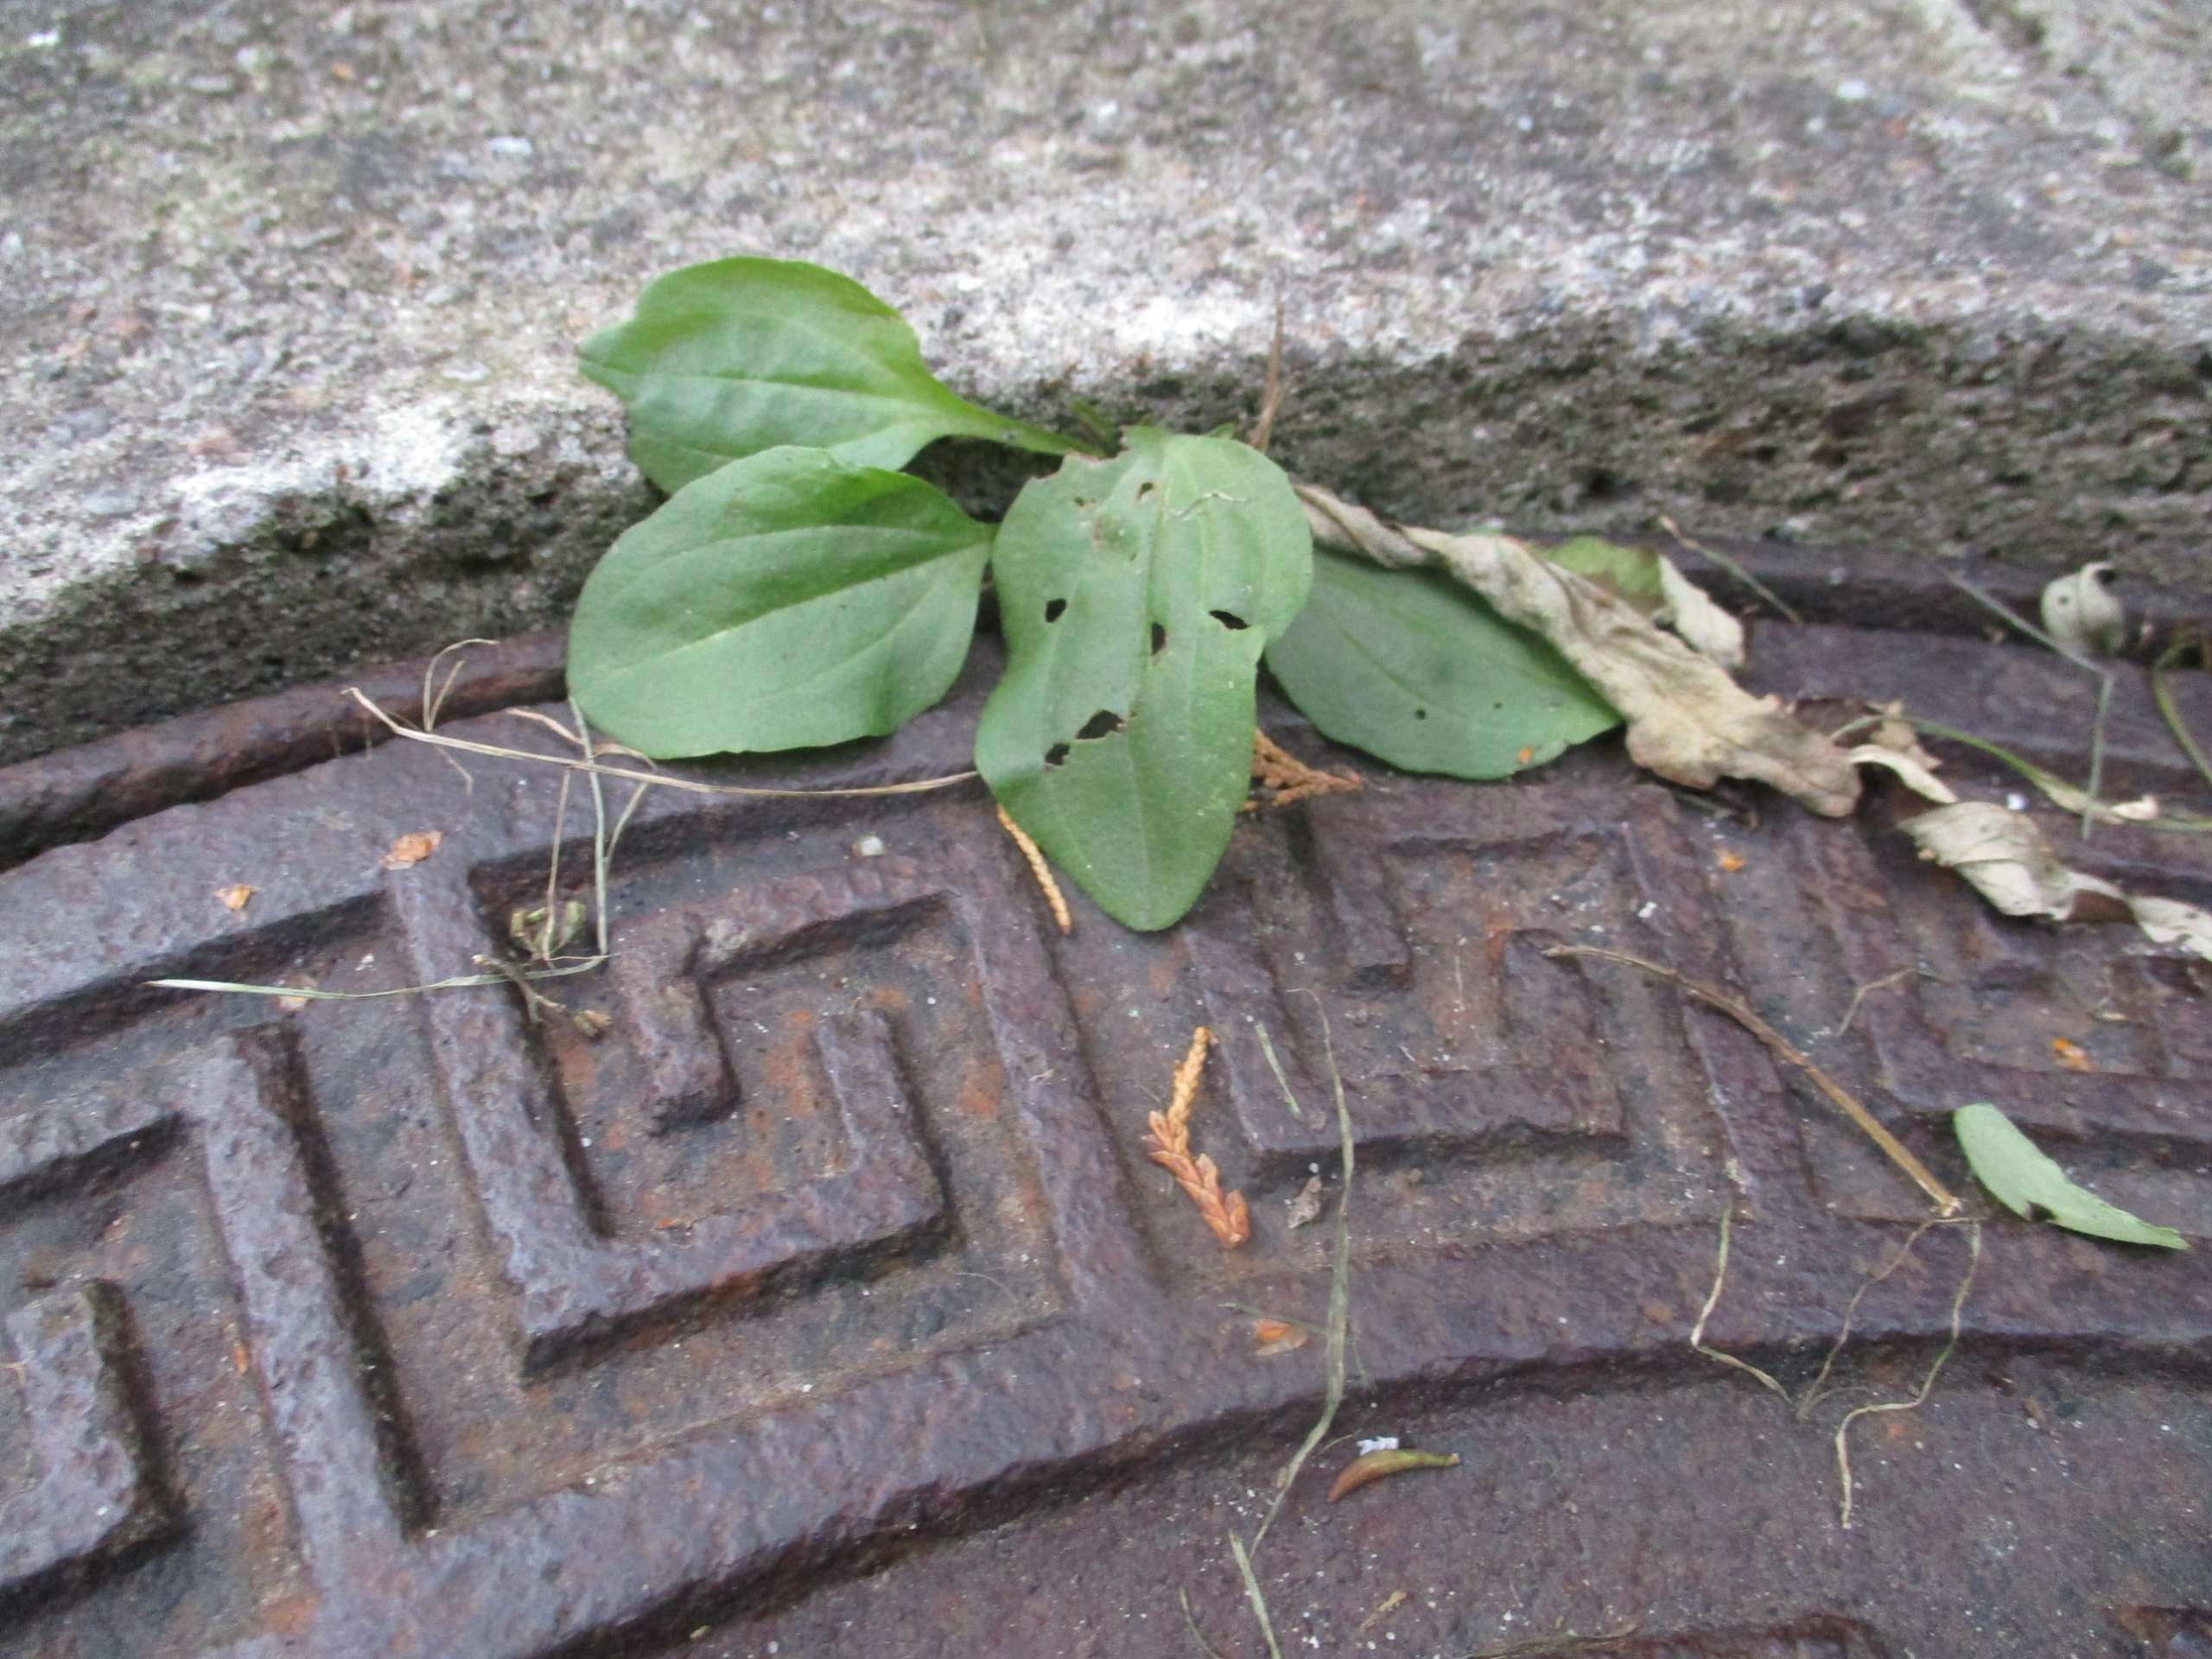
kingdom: Plantae
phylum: Tracheophyta
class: Magnoliopsida
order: Lamiales
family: Plantaginaceae
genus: Plantago
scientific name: Plantago major
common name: Glat vejbred
